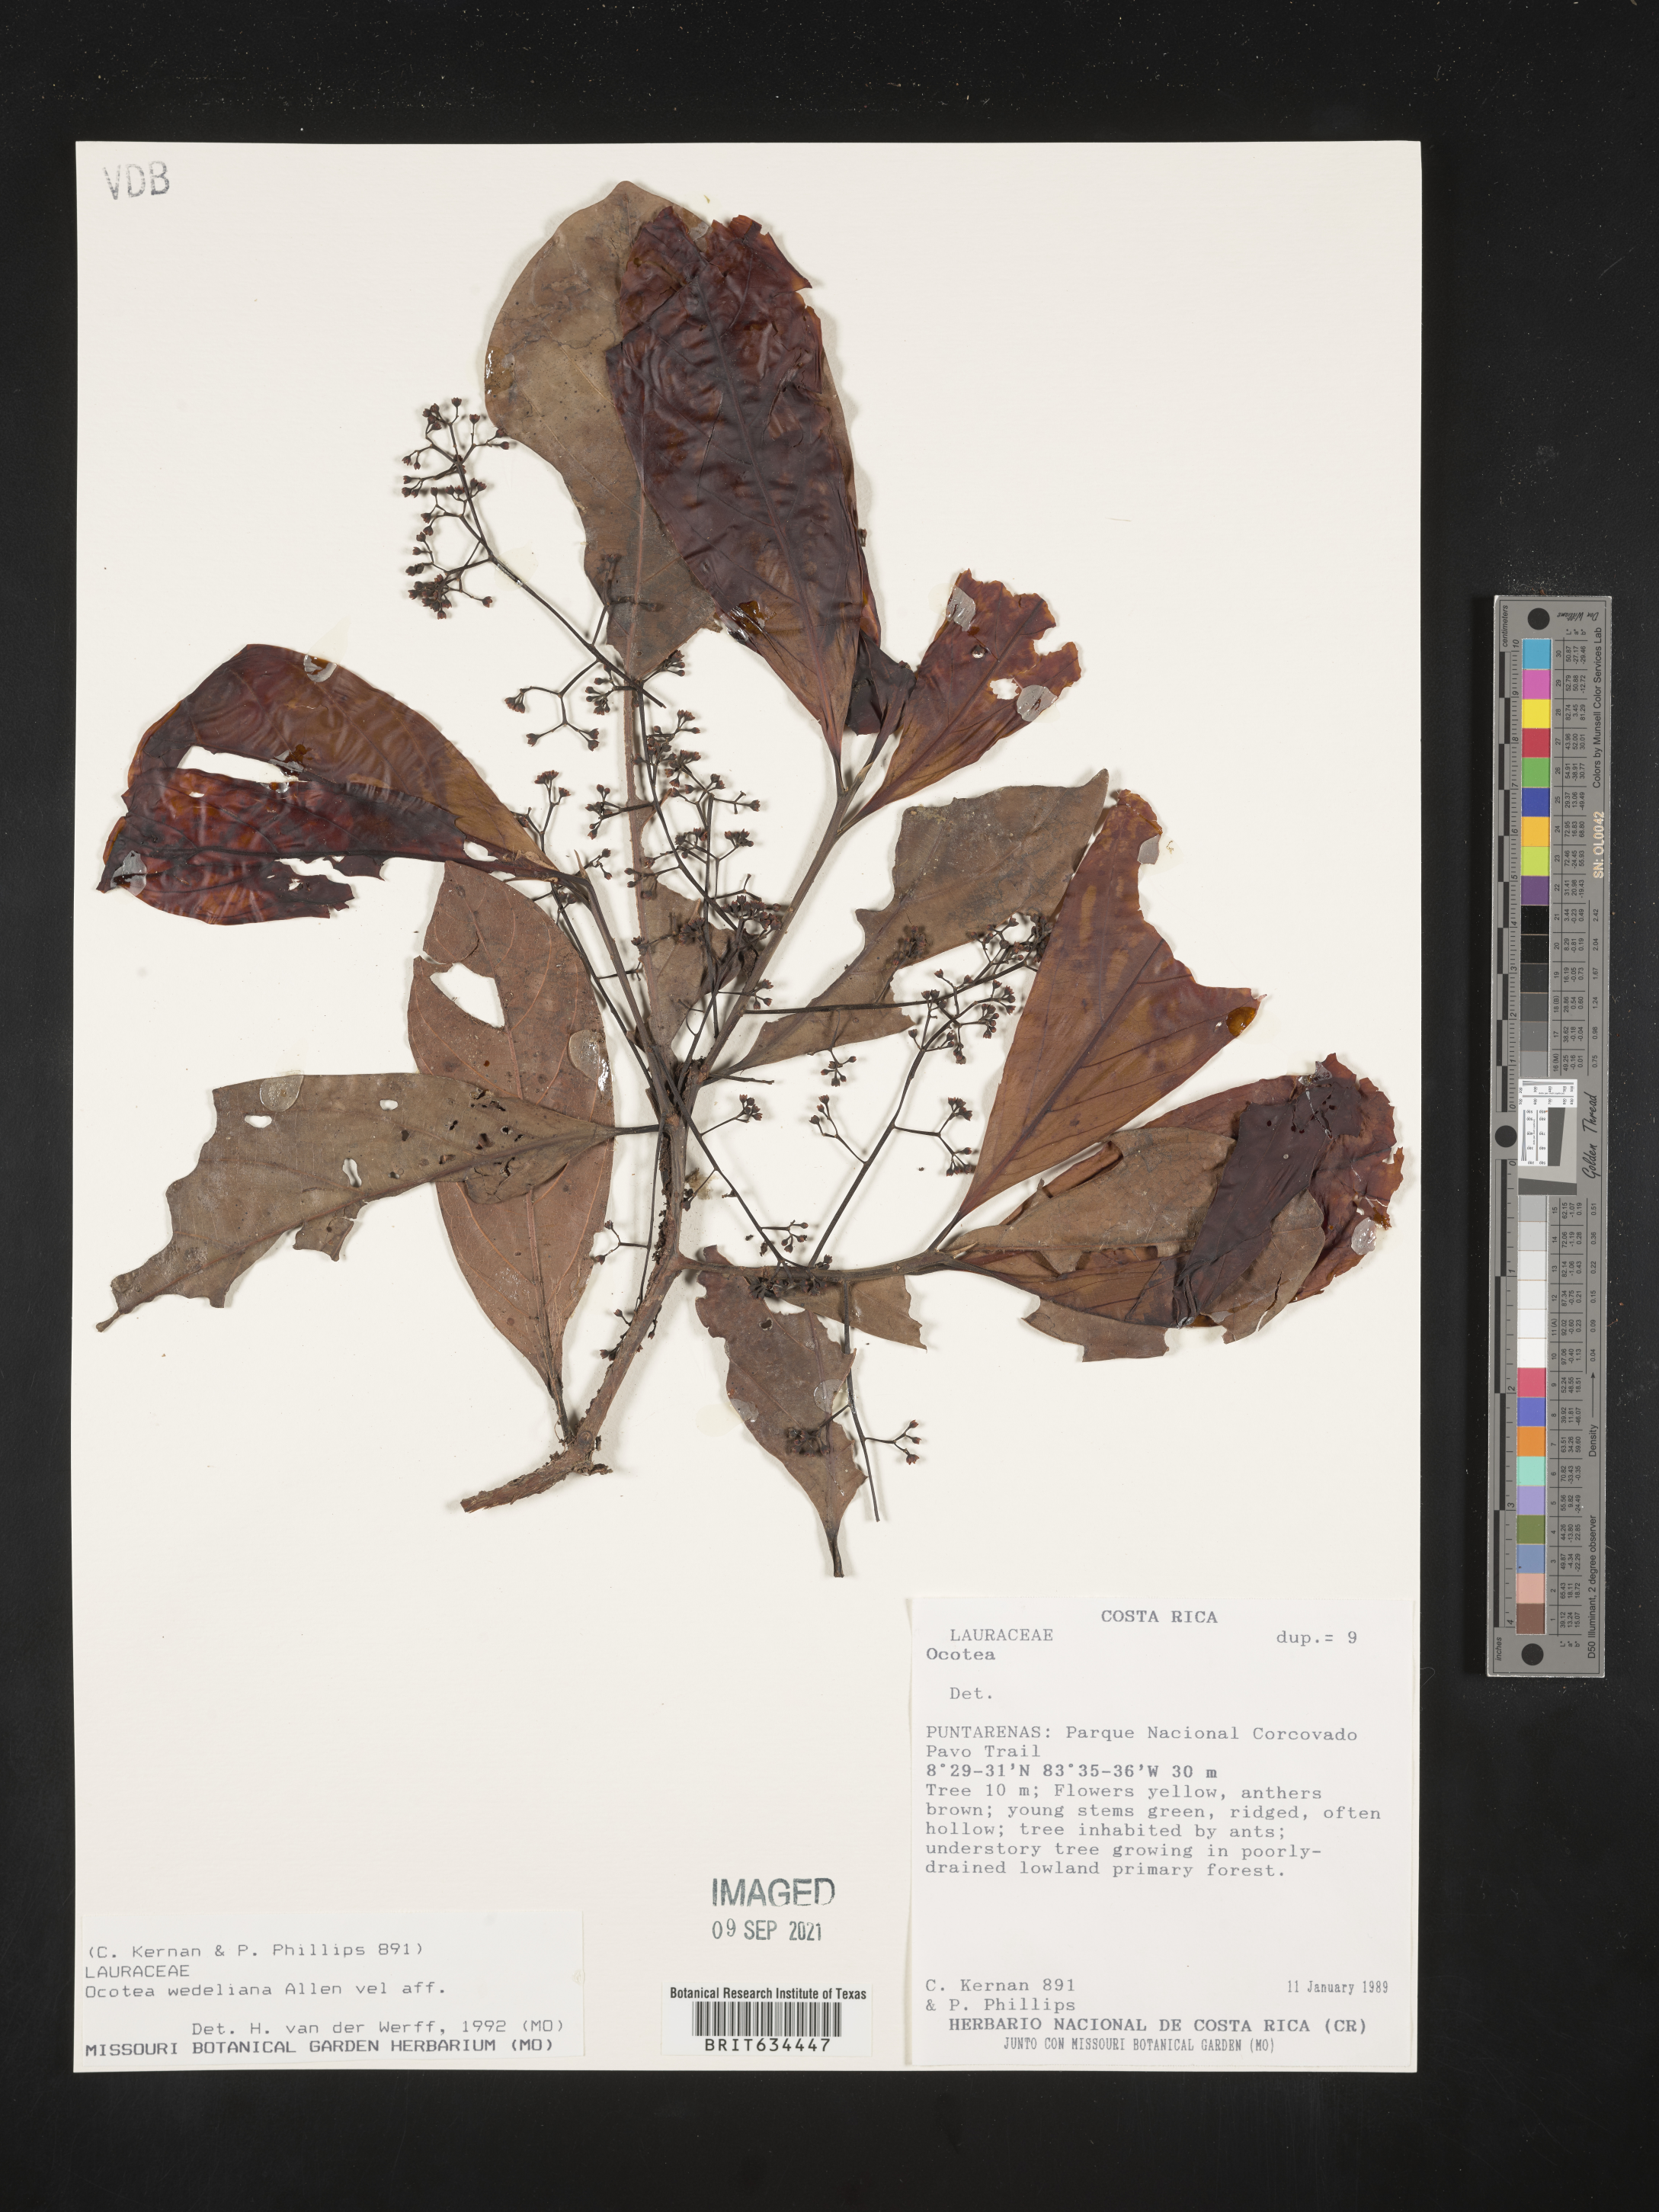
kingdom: Plantae
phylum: Tracheophyta
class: Magnoliopsida
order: Laurales
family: Lauraceae
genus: Ocotea
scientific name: Ocotea
